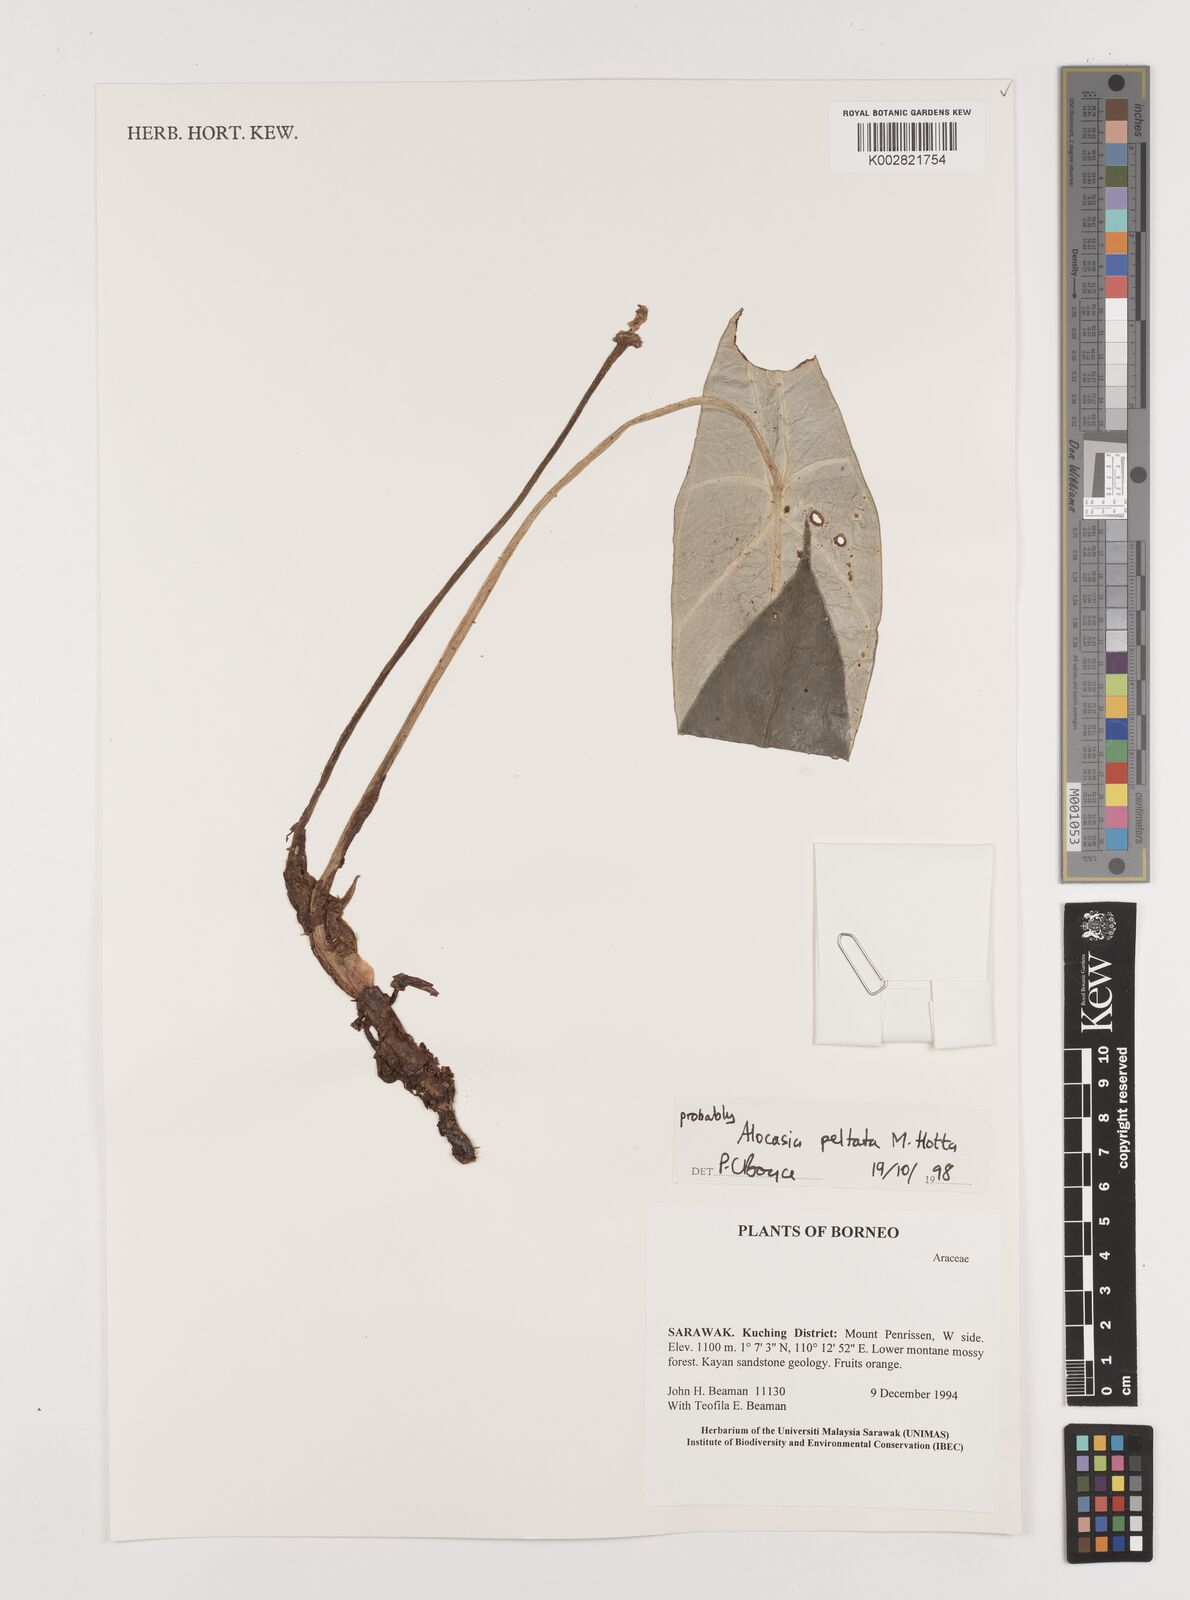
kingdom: Plantae
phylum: Tracheophyta
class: Liliopsida
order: Alismatales
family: Araceae
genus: Alocasia
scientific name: Alocasia peltata
